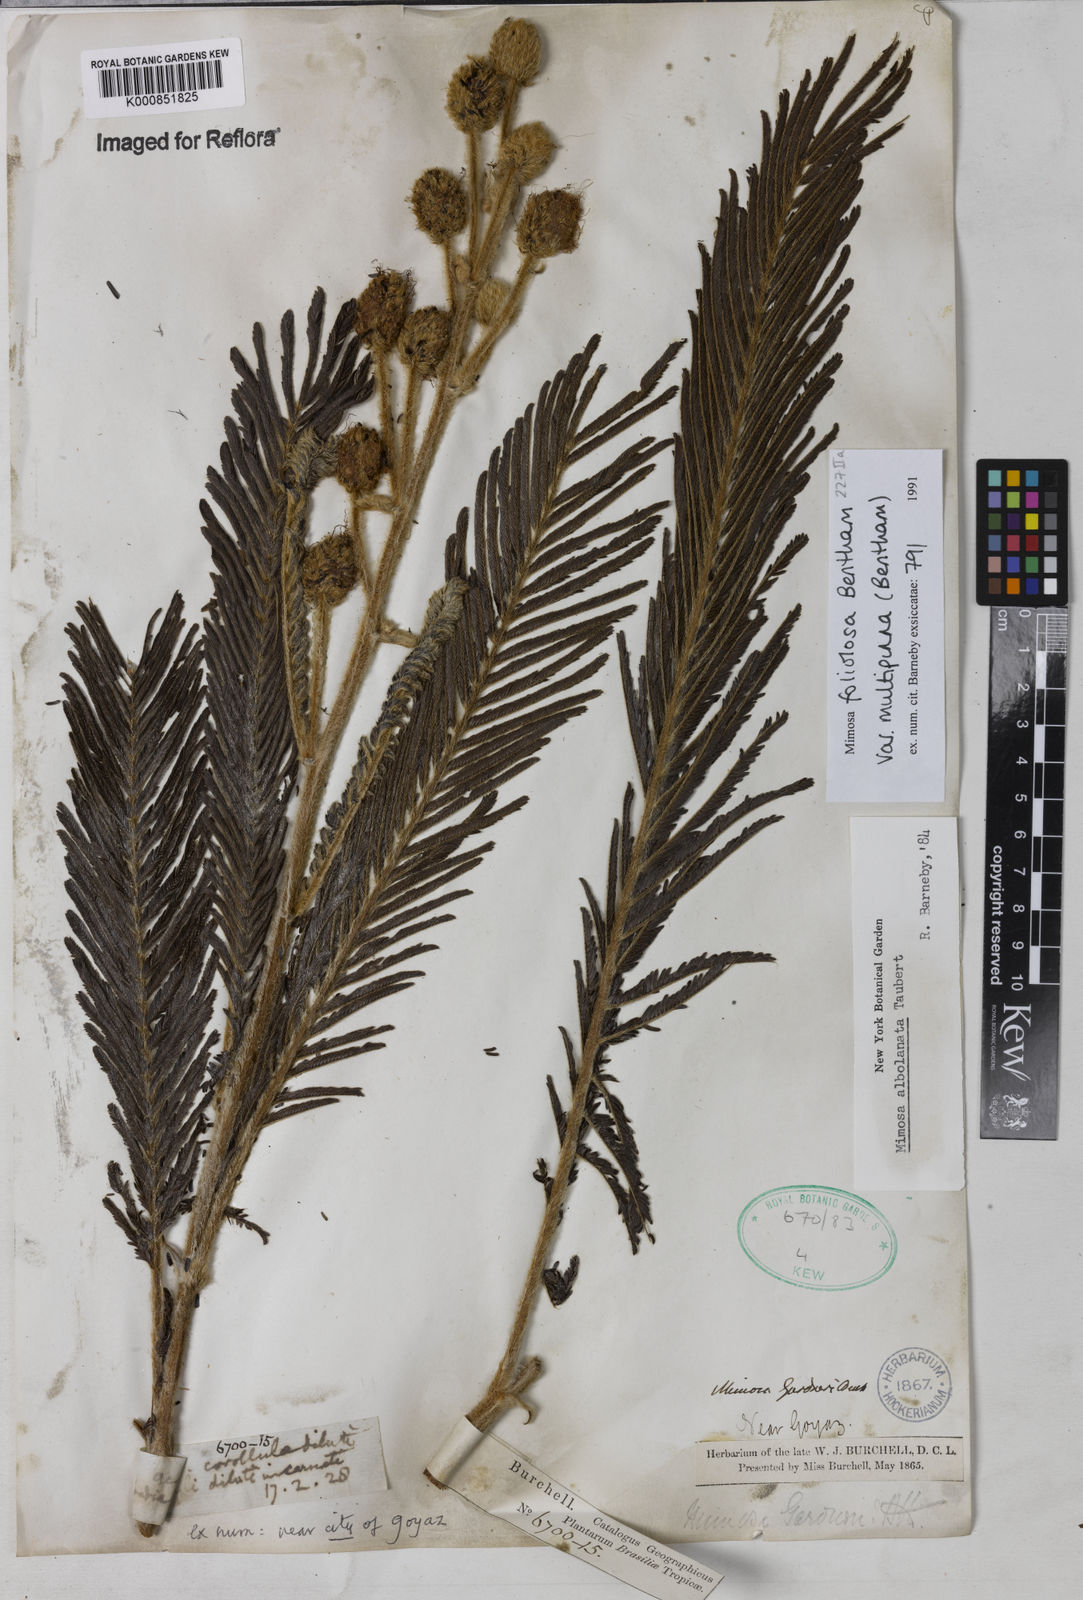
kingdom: Plantae
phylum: Tracheophyta
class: Magnoliopsida
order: Fabales
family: Fabaceae
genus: Mimosa
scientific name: Mimosa albolanata
